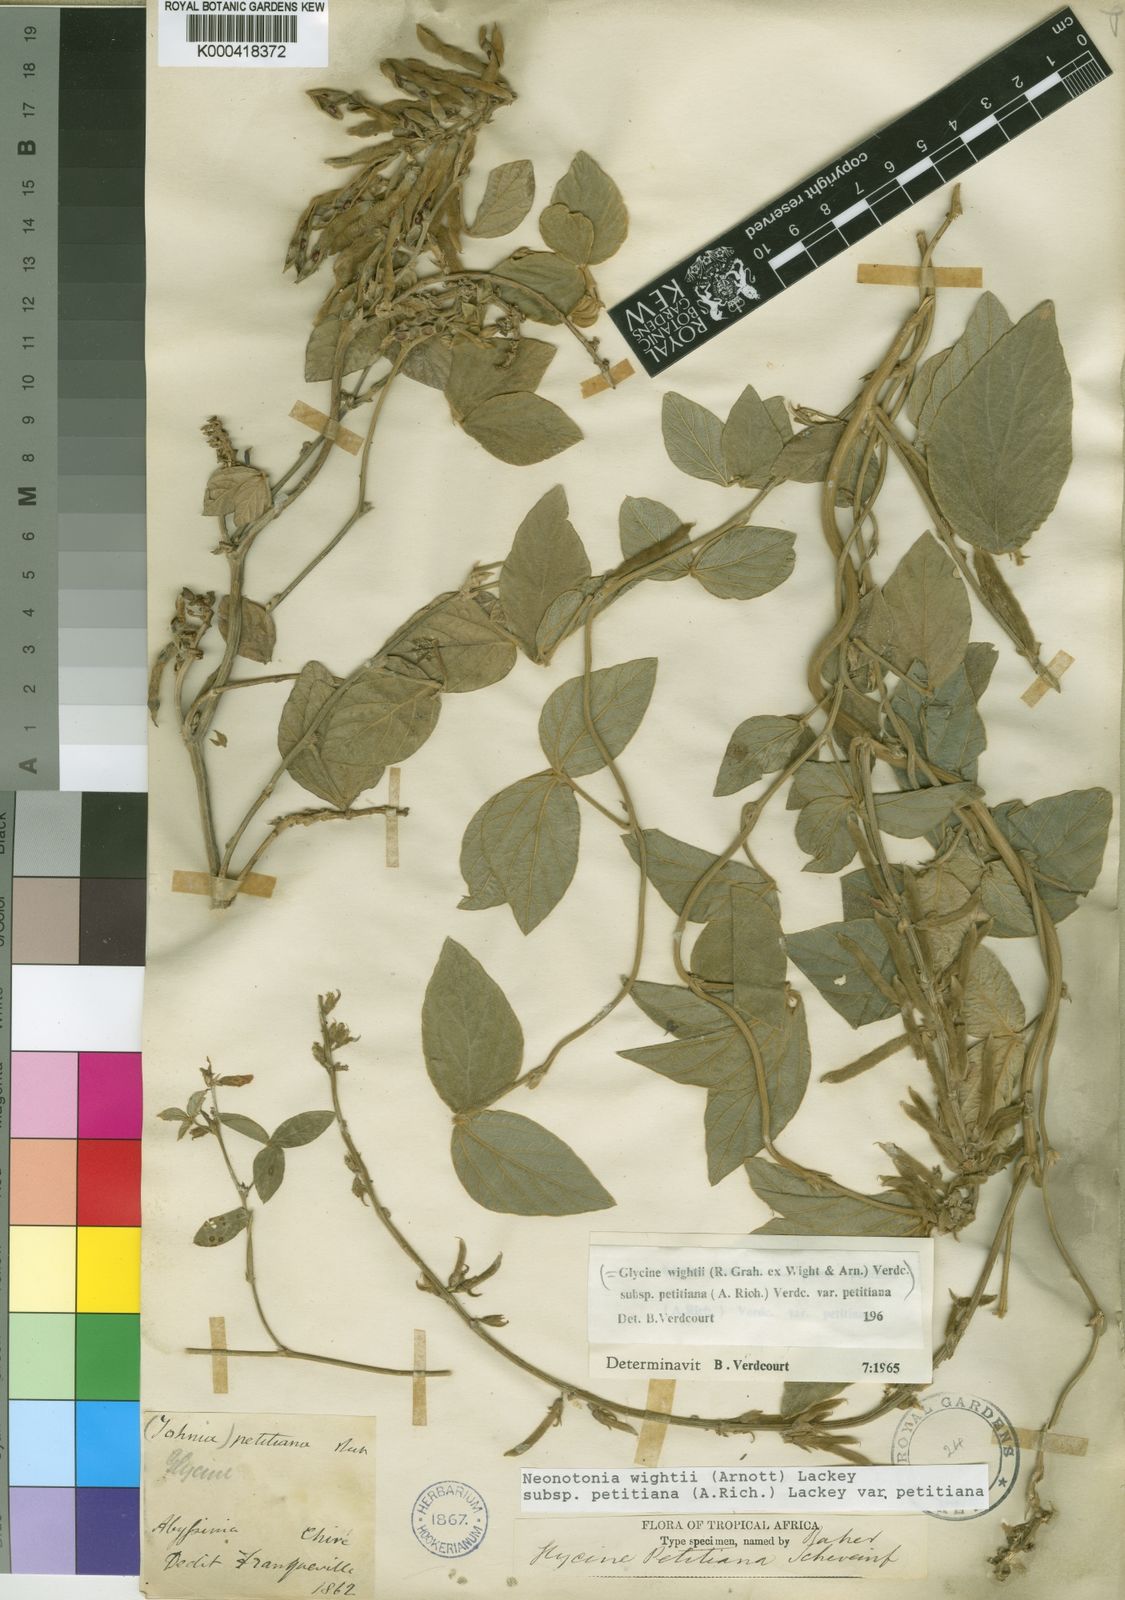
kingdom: Plantae
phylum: Tracheophyta
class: Magnoliopsida
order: Fabales
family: Fabaceae
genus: Neonotonia
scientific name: Neonotonia wightii
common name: Perennial soybean
